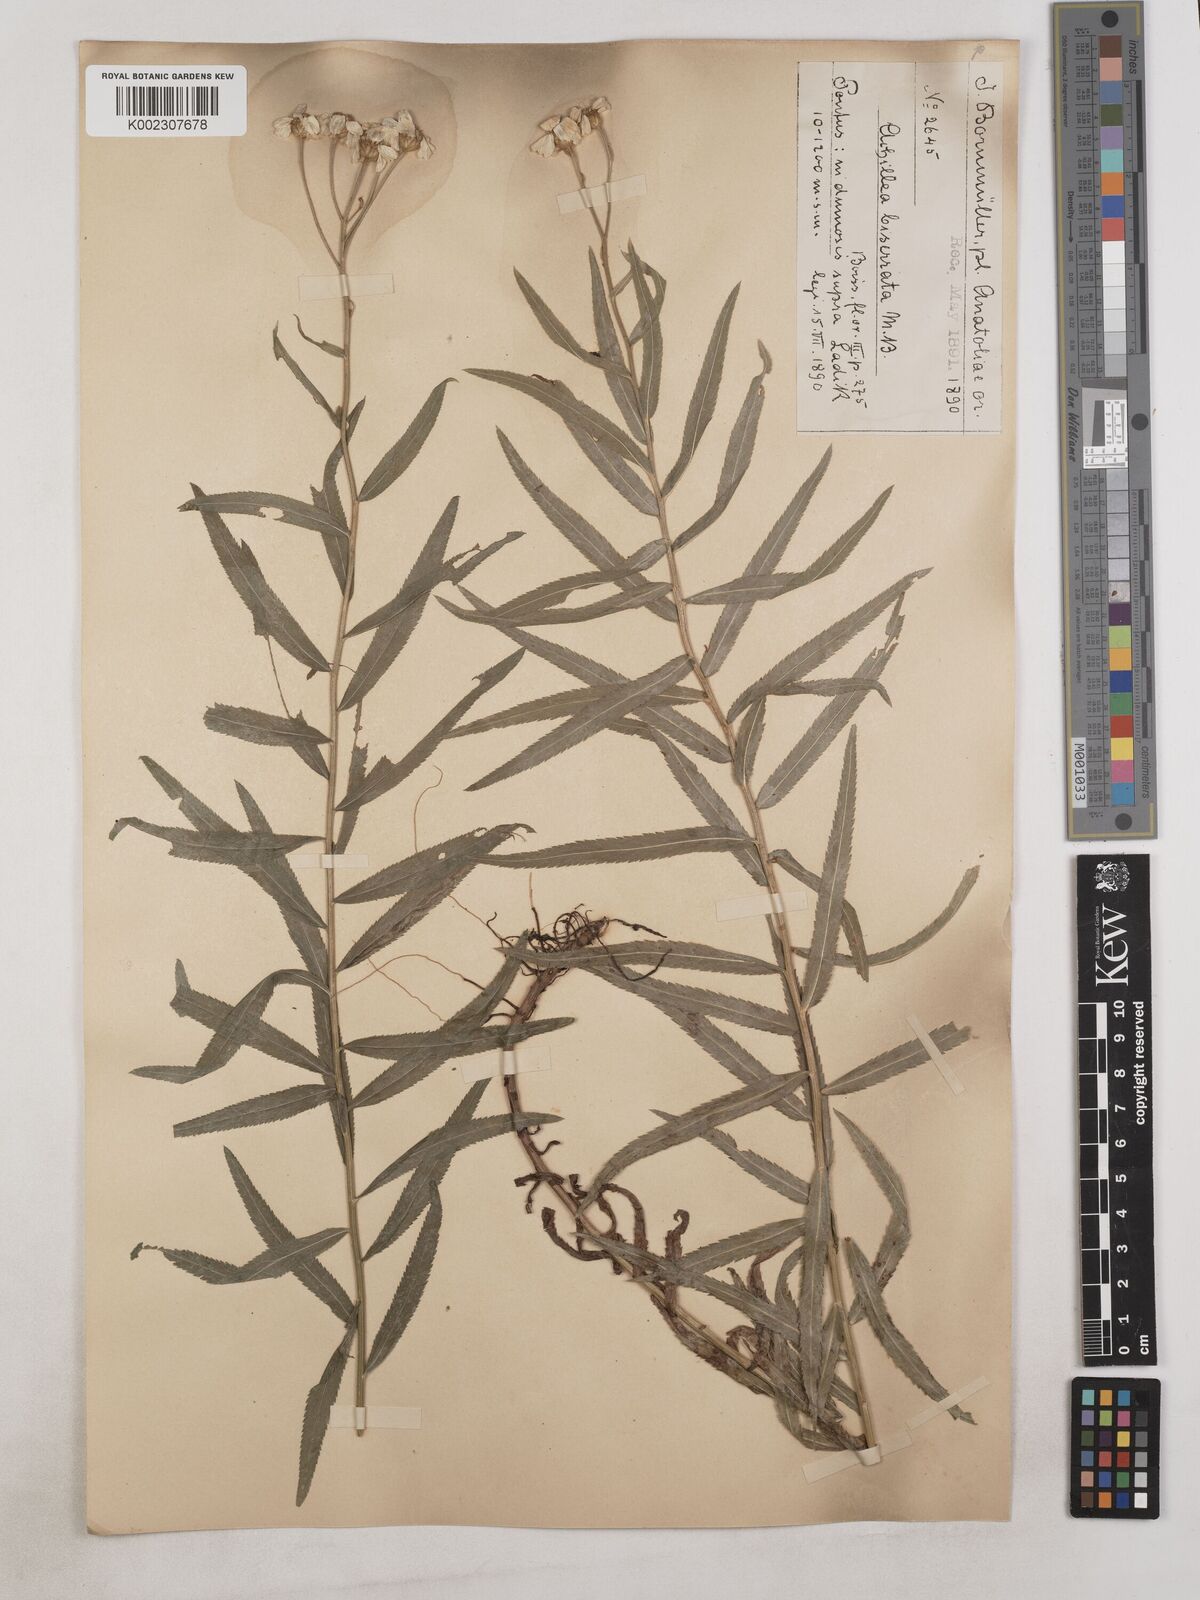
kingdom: Plantae
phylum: Tracheophyta
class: Magnoliopsida
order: Asterales
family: Asteraceae
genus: Achillea
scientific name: Achillea biserrata
